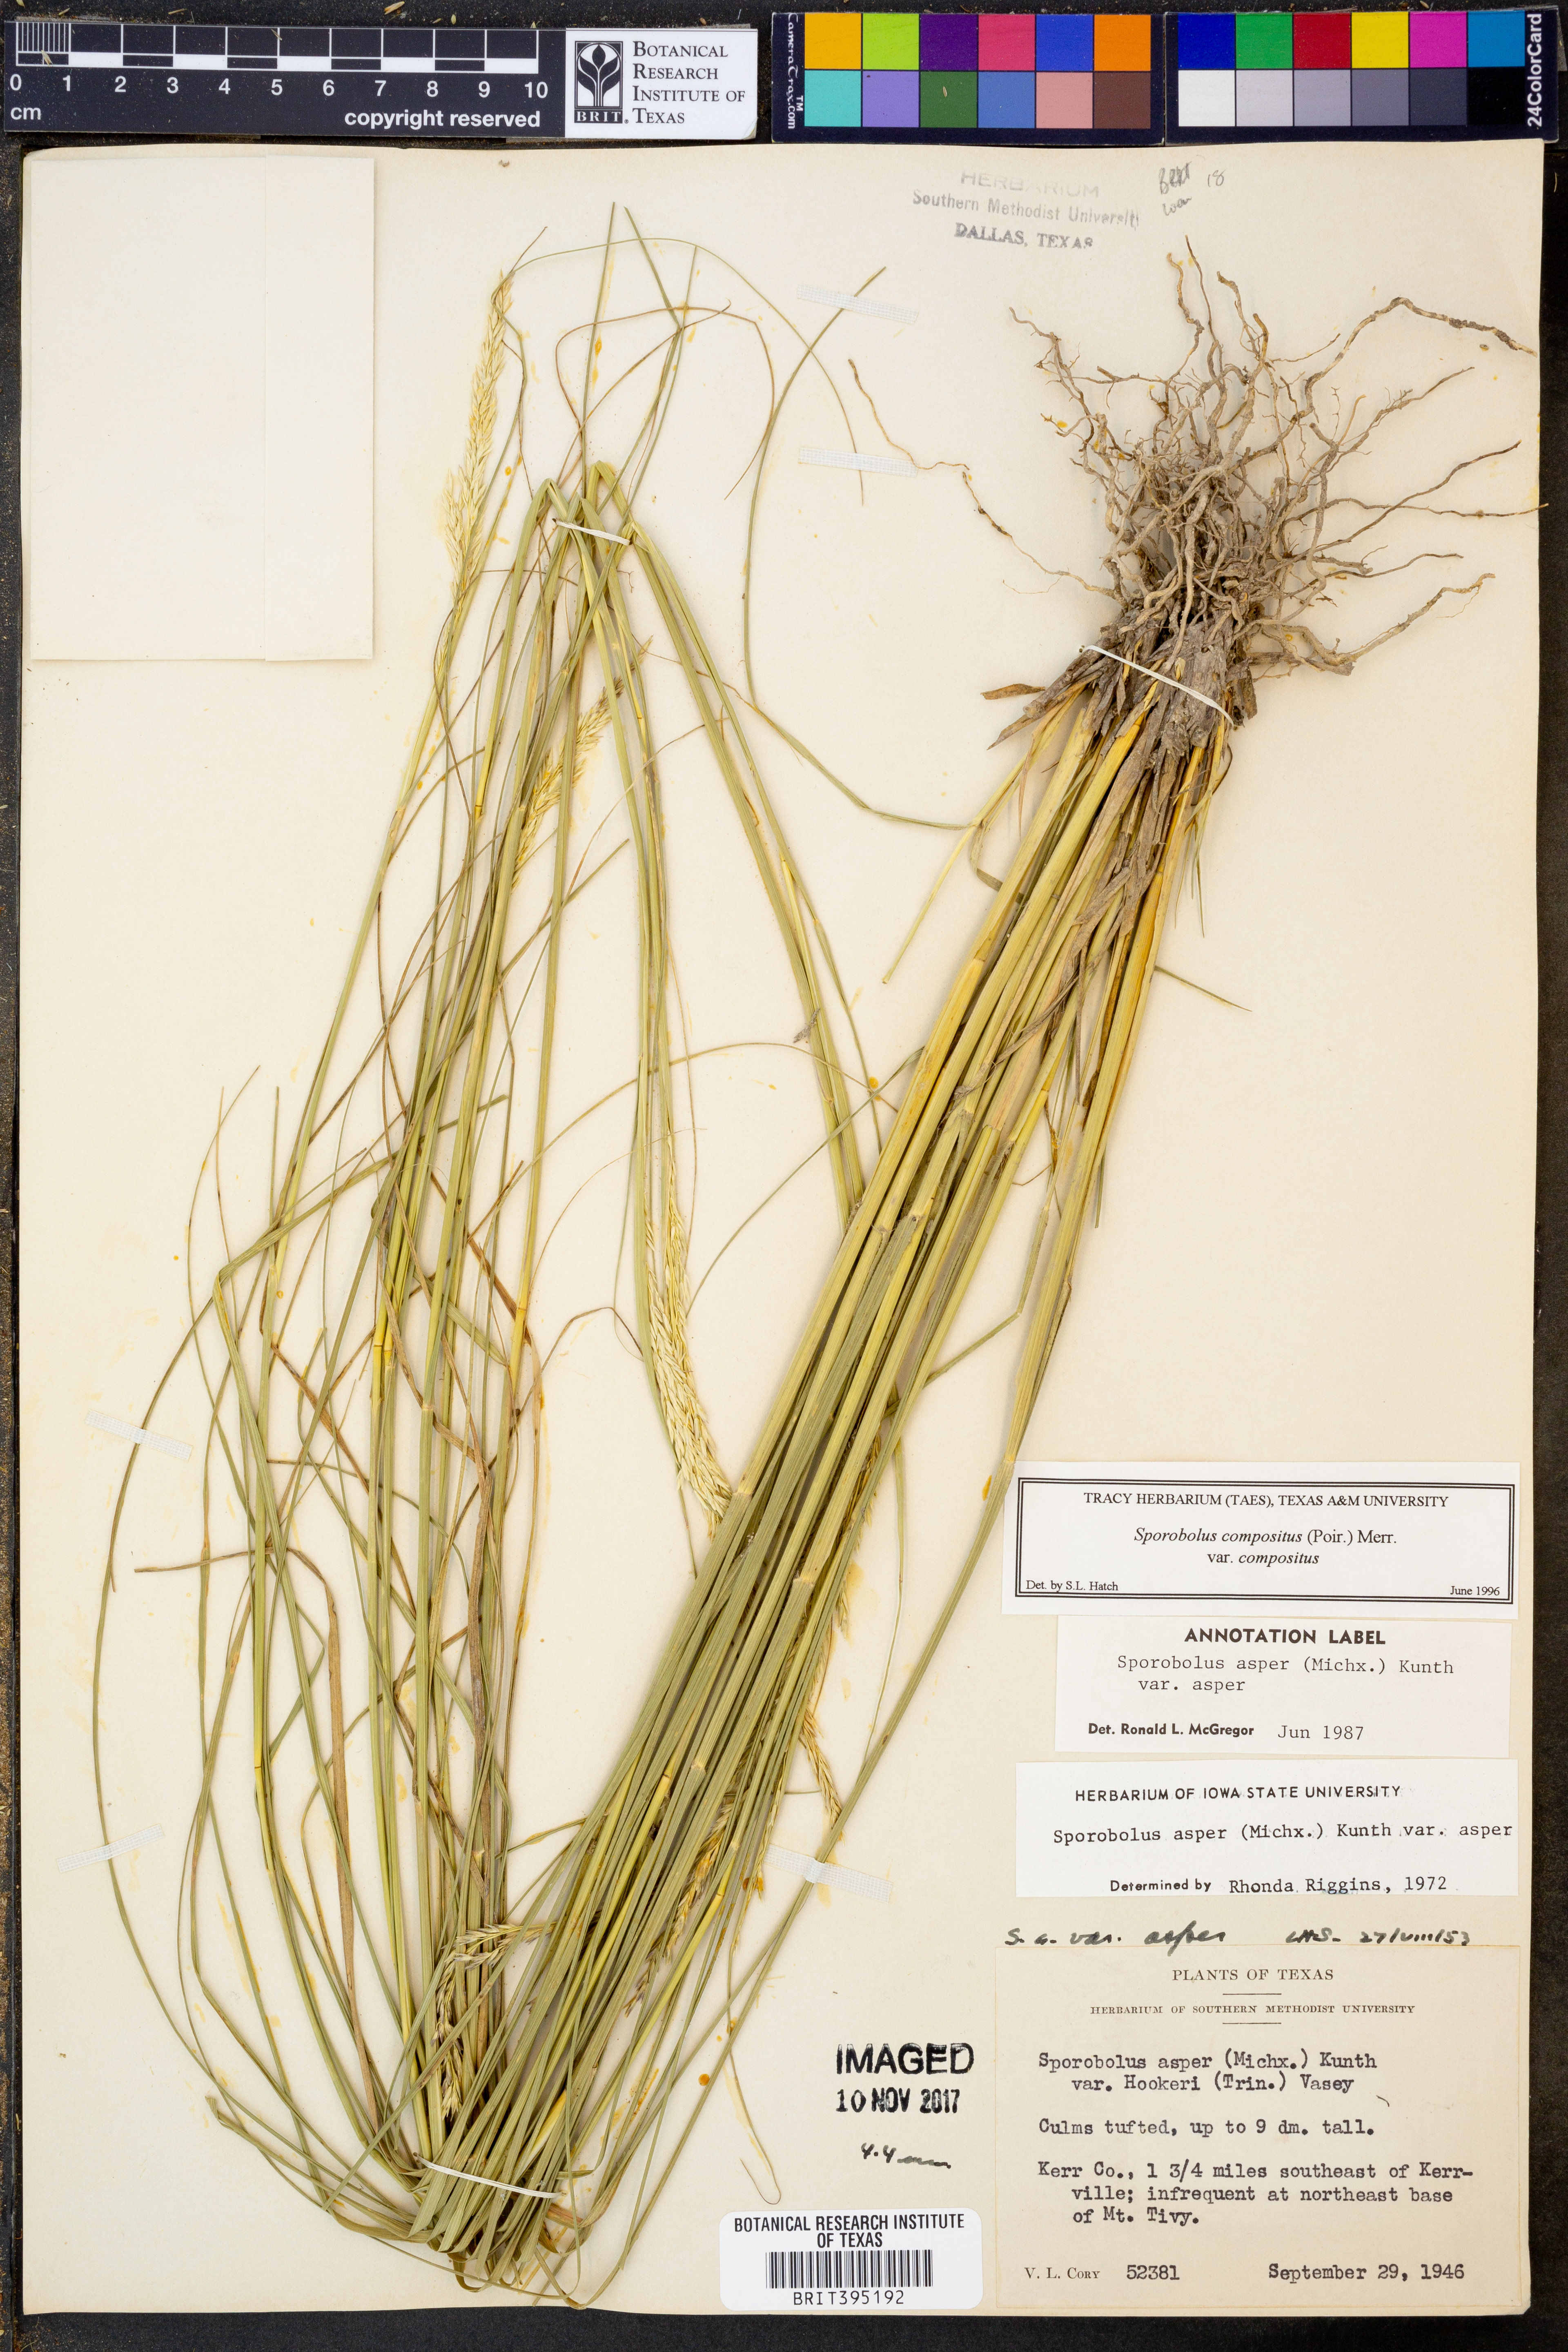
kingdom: Plantae
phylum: Tracheophyta
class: Liliopsida
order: Poales
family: Poaceae
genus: Sporobolus
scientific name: Sporobolus compositus
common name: Rough dropseed
